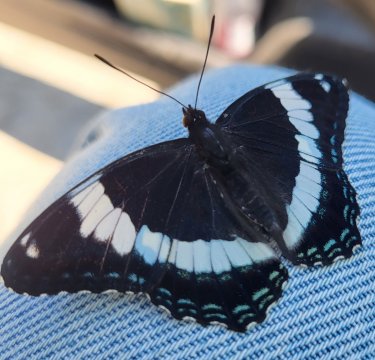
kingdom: Animalia
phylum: Arthropoda
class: Insecta
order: Lepidoptera
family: Nymphalidae
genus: Limenitis
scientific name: Limenitis arthemis
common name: Red-spotted Admiral
